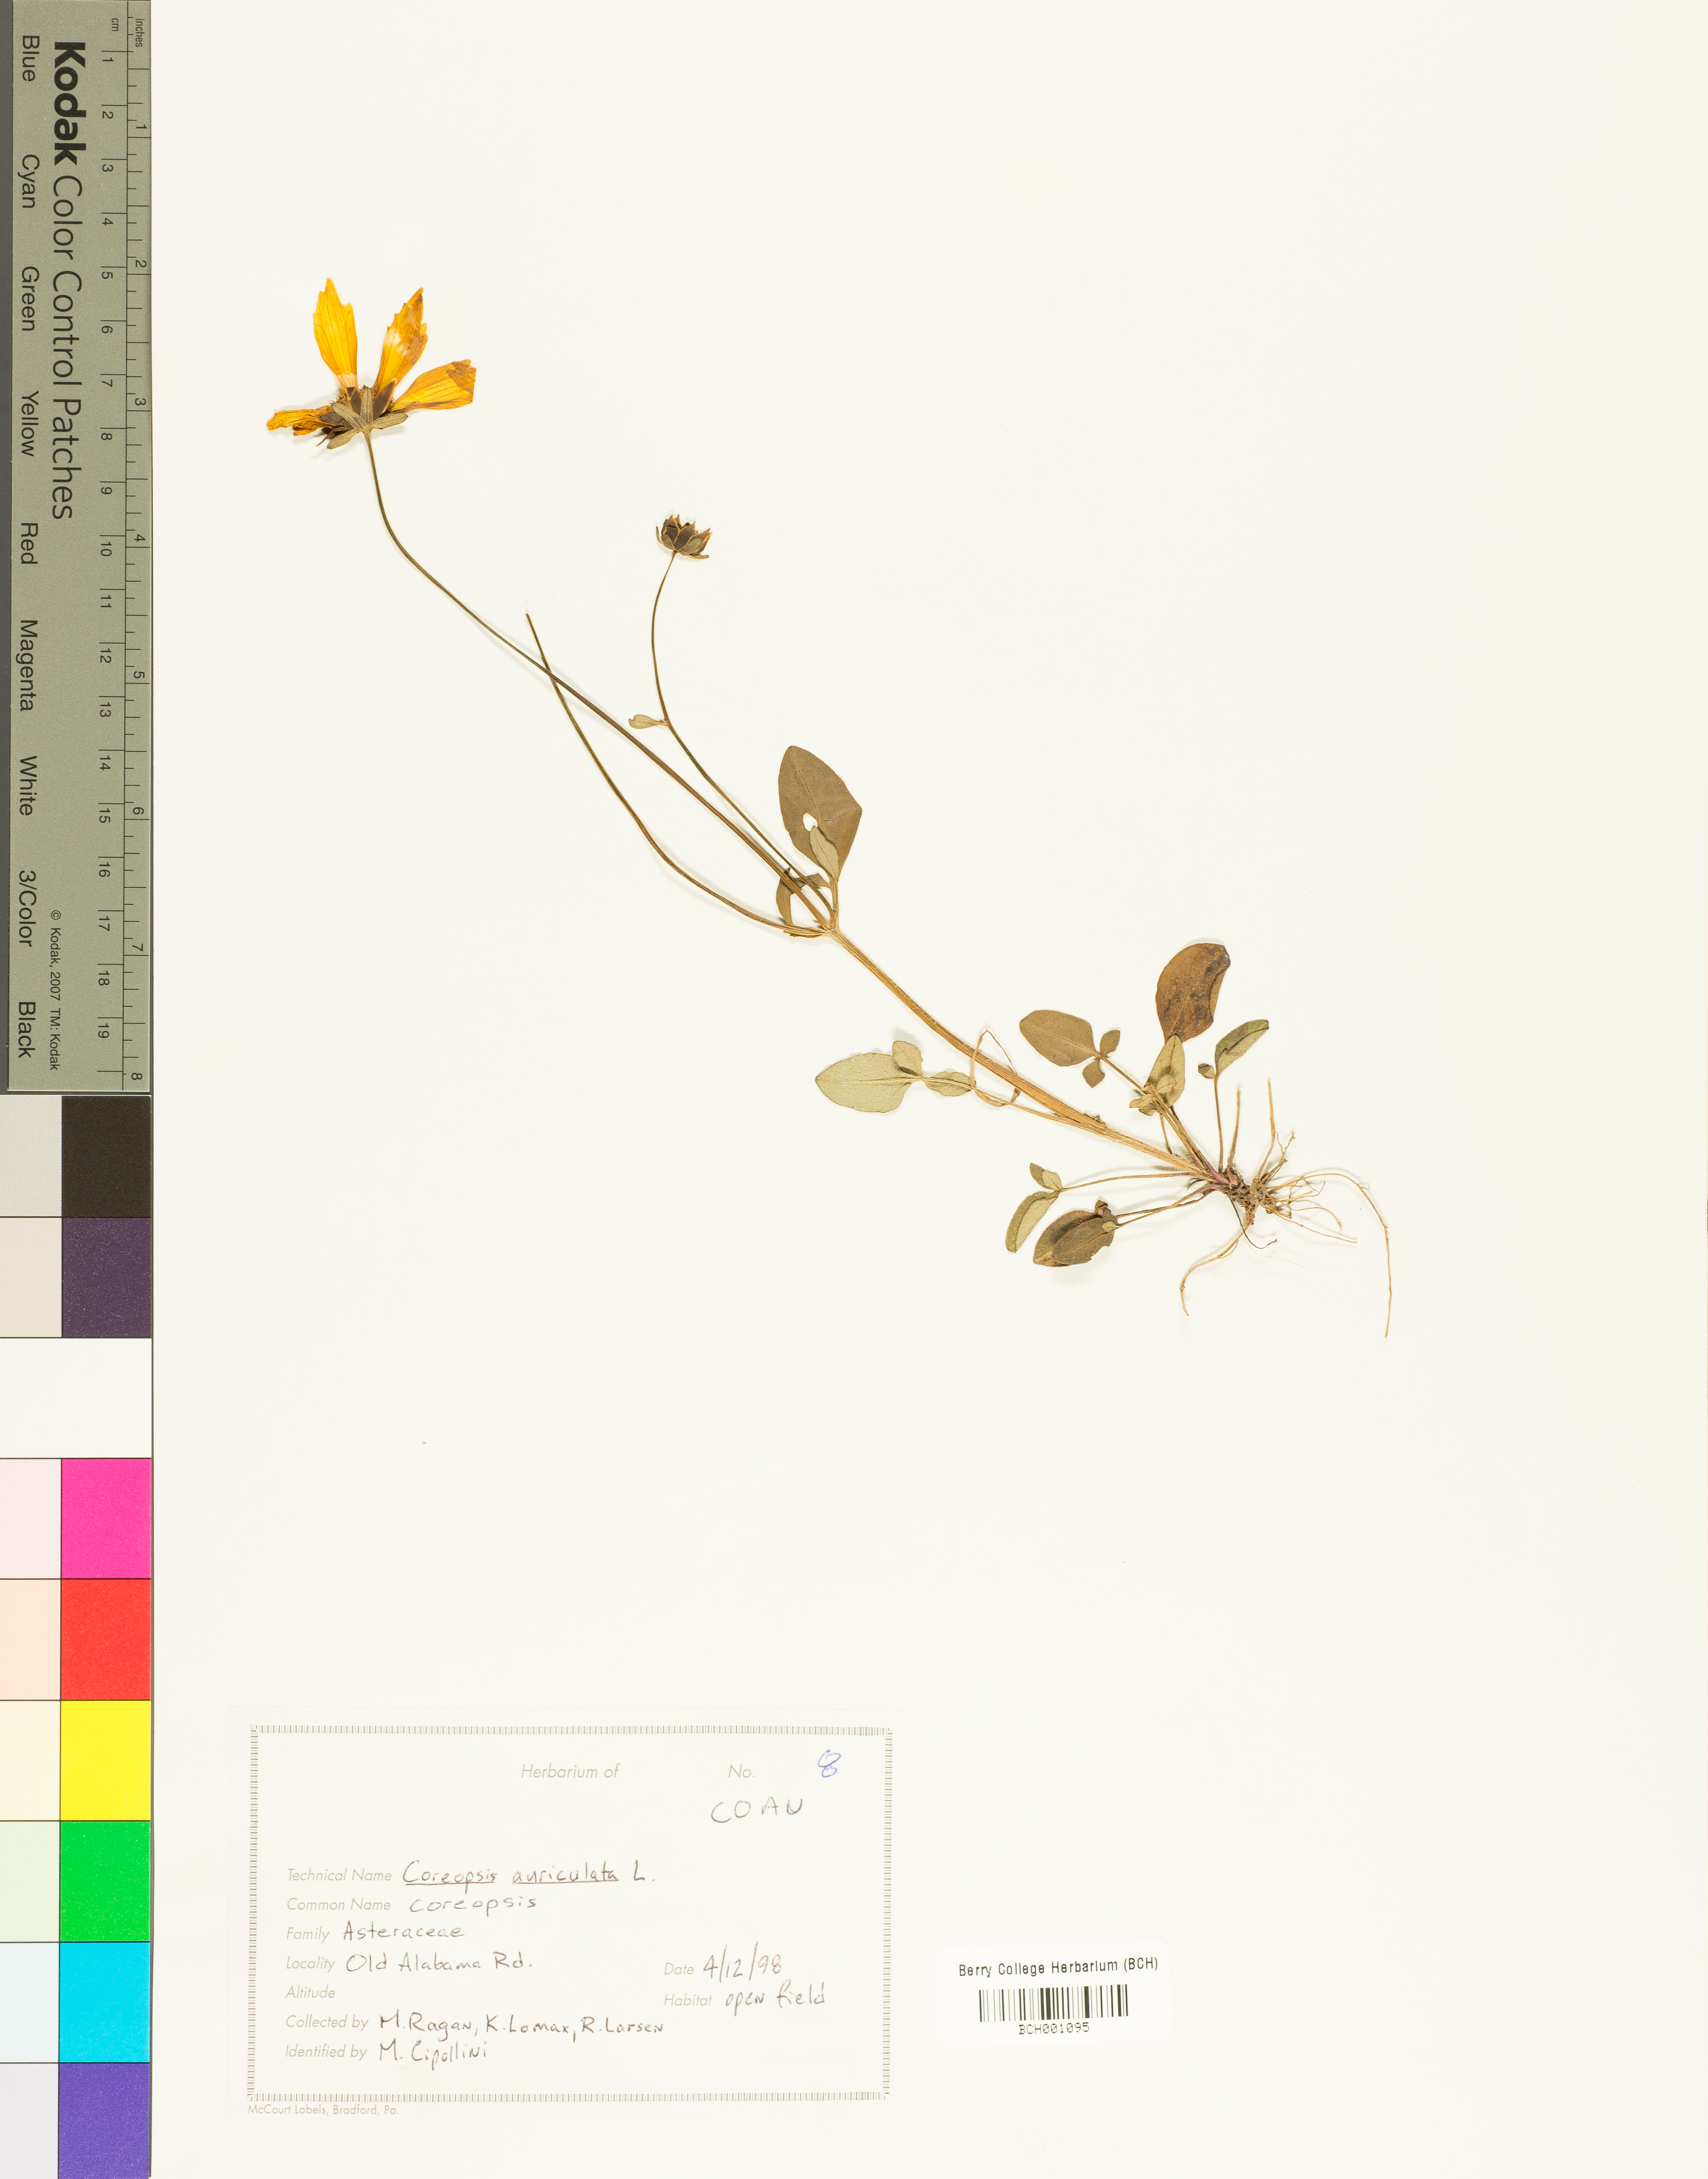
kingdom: Plantae
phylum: Tracheophyta
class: Magnoliopsida
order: Asterales
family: Asteraceae
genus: Coreopsis
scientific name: Coreopsis auriculata
